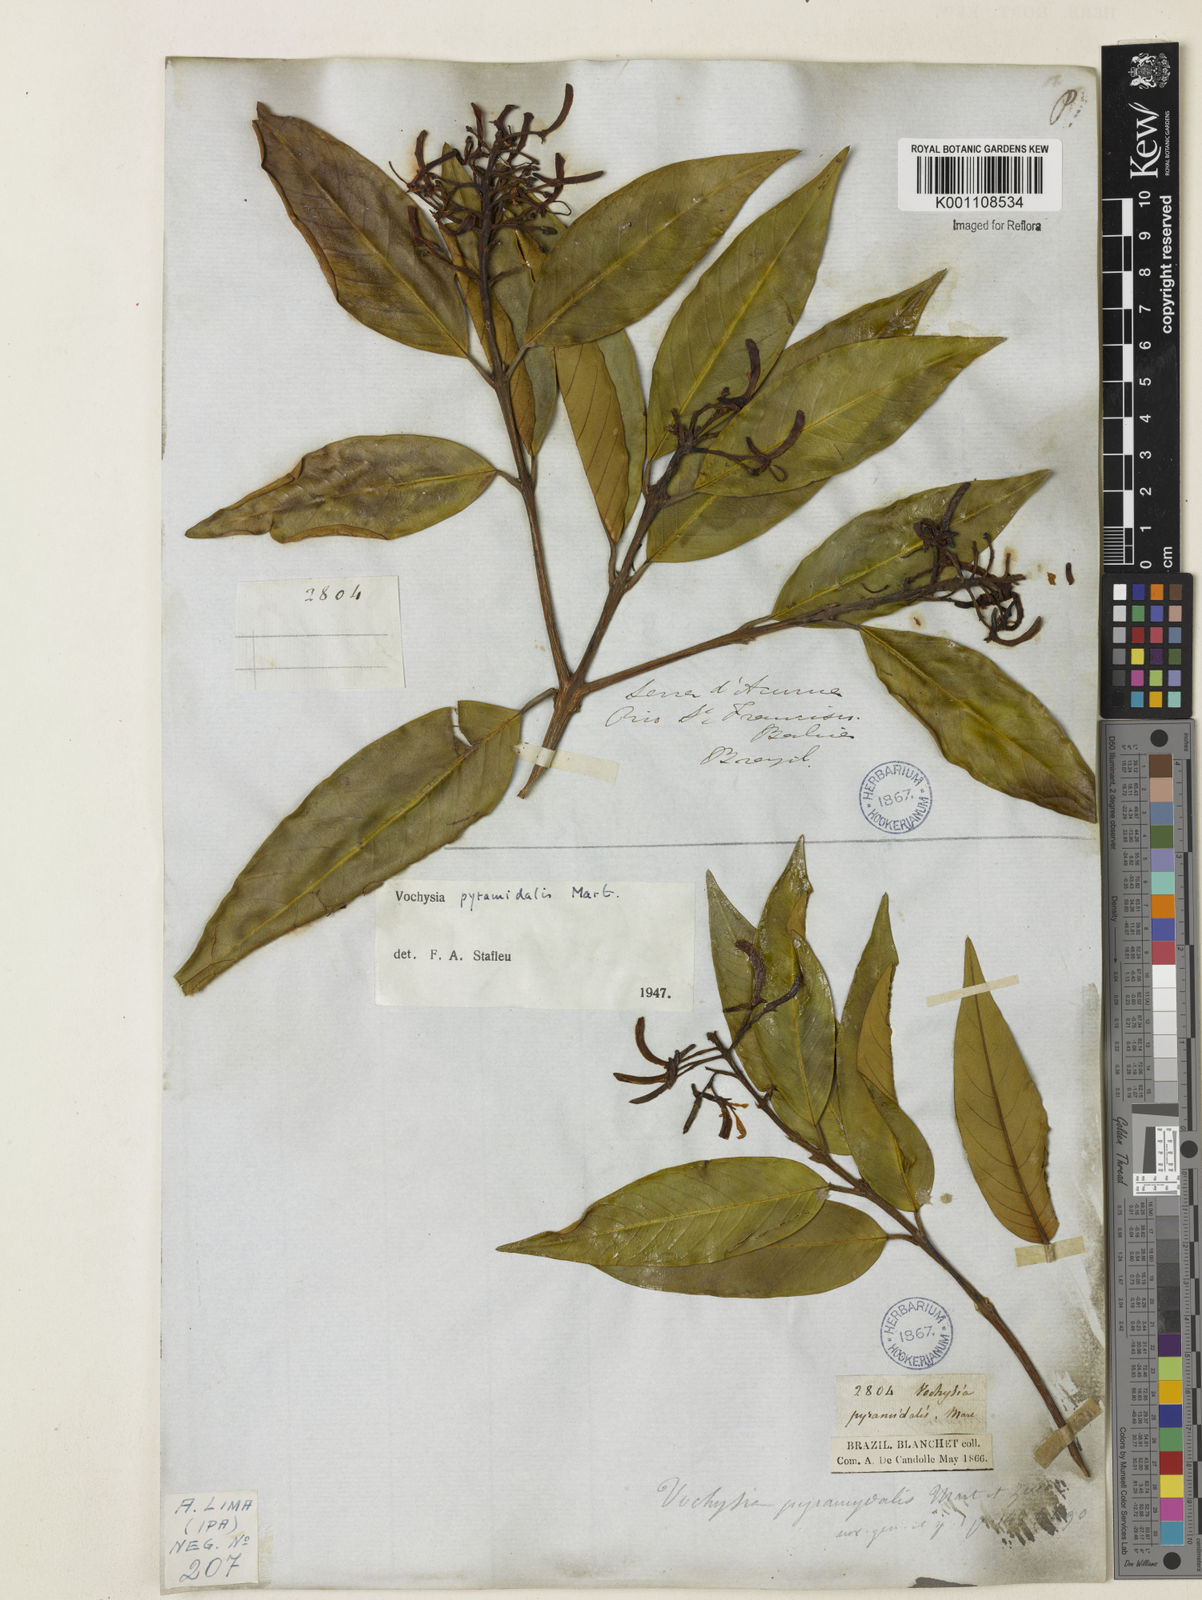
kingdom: Plantae
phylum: Tracheophyta
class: Magnoliopsida
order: Myrtales
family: Vochysiaceae
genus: Vochysia
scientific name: Vochysia pyramidalis
